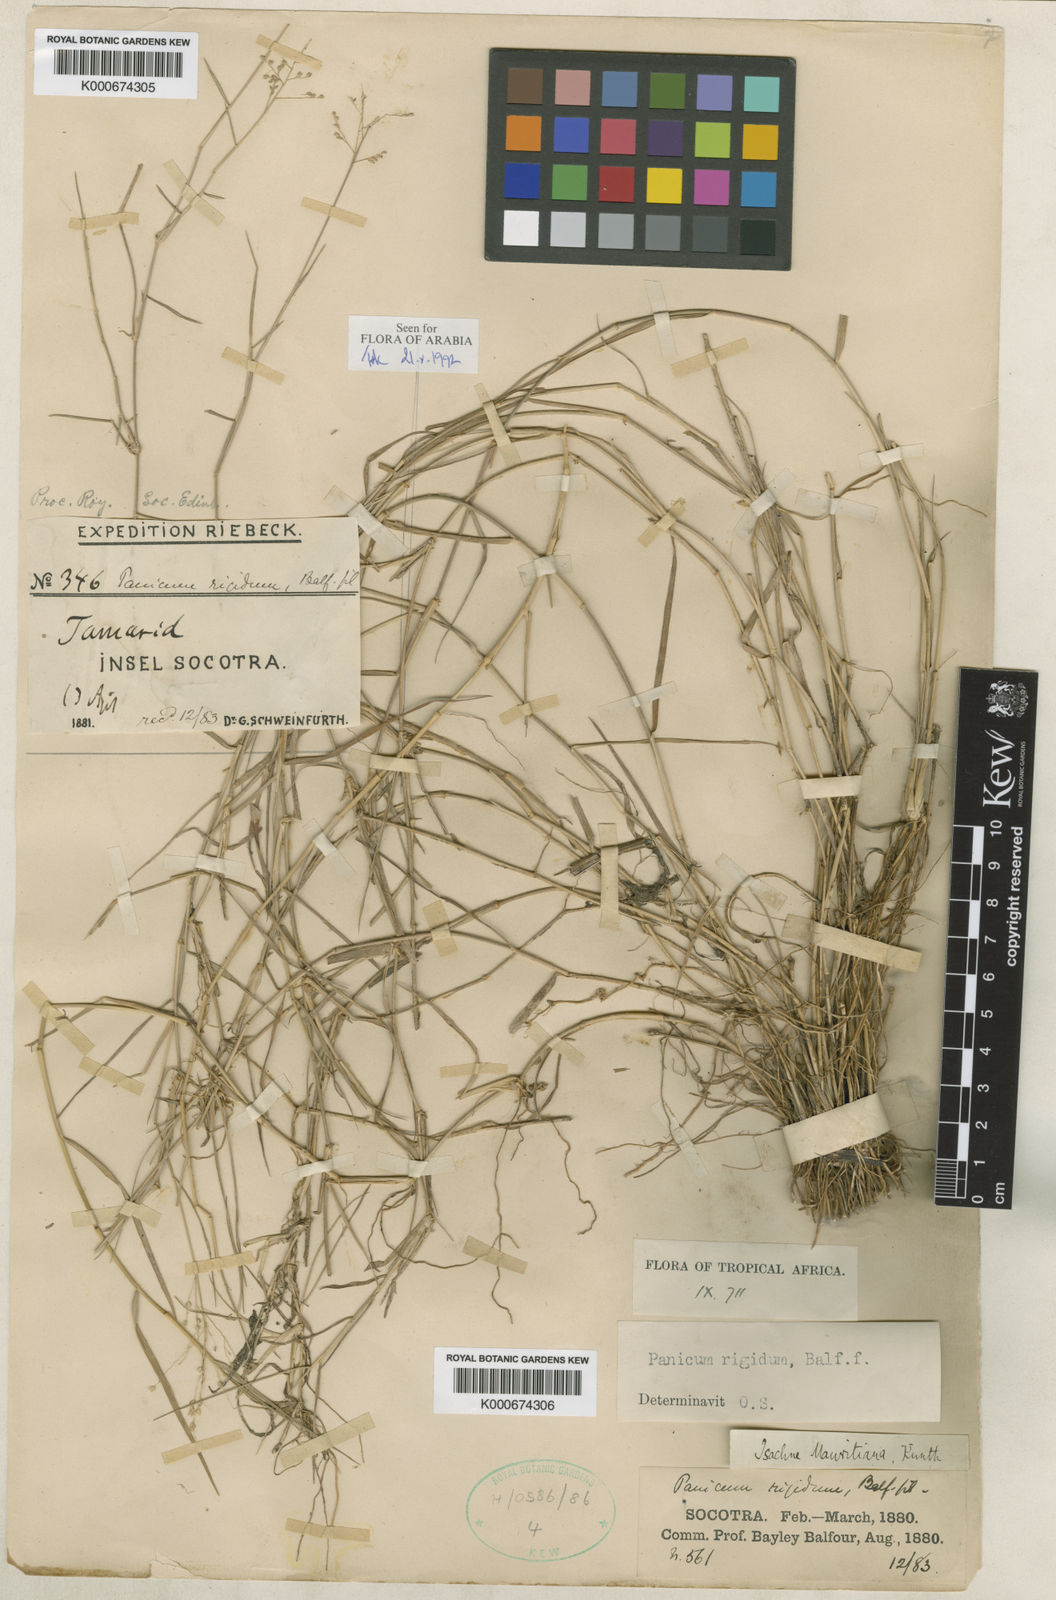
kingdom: Plantae
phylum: Tracheophyta
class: Liliopsida
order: Poales
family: Poaceae
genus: Panicum
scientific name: Panicum rigidum
